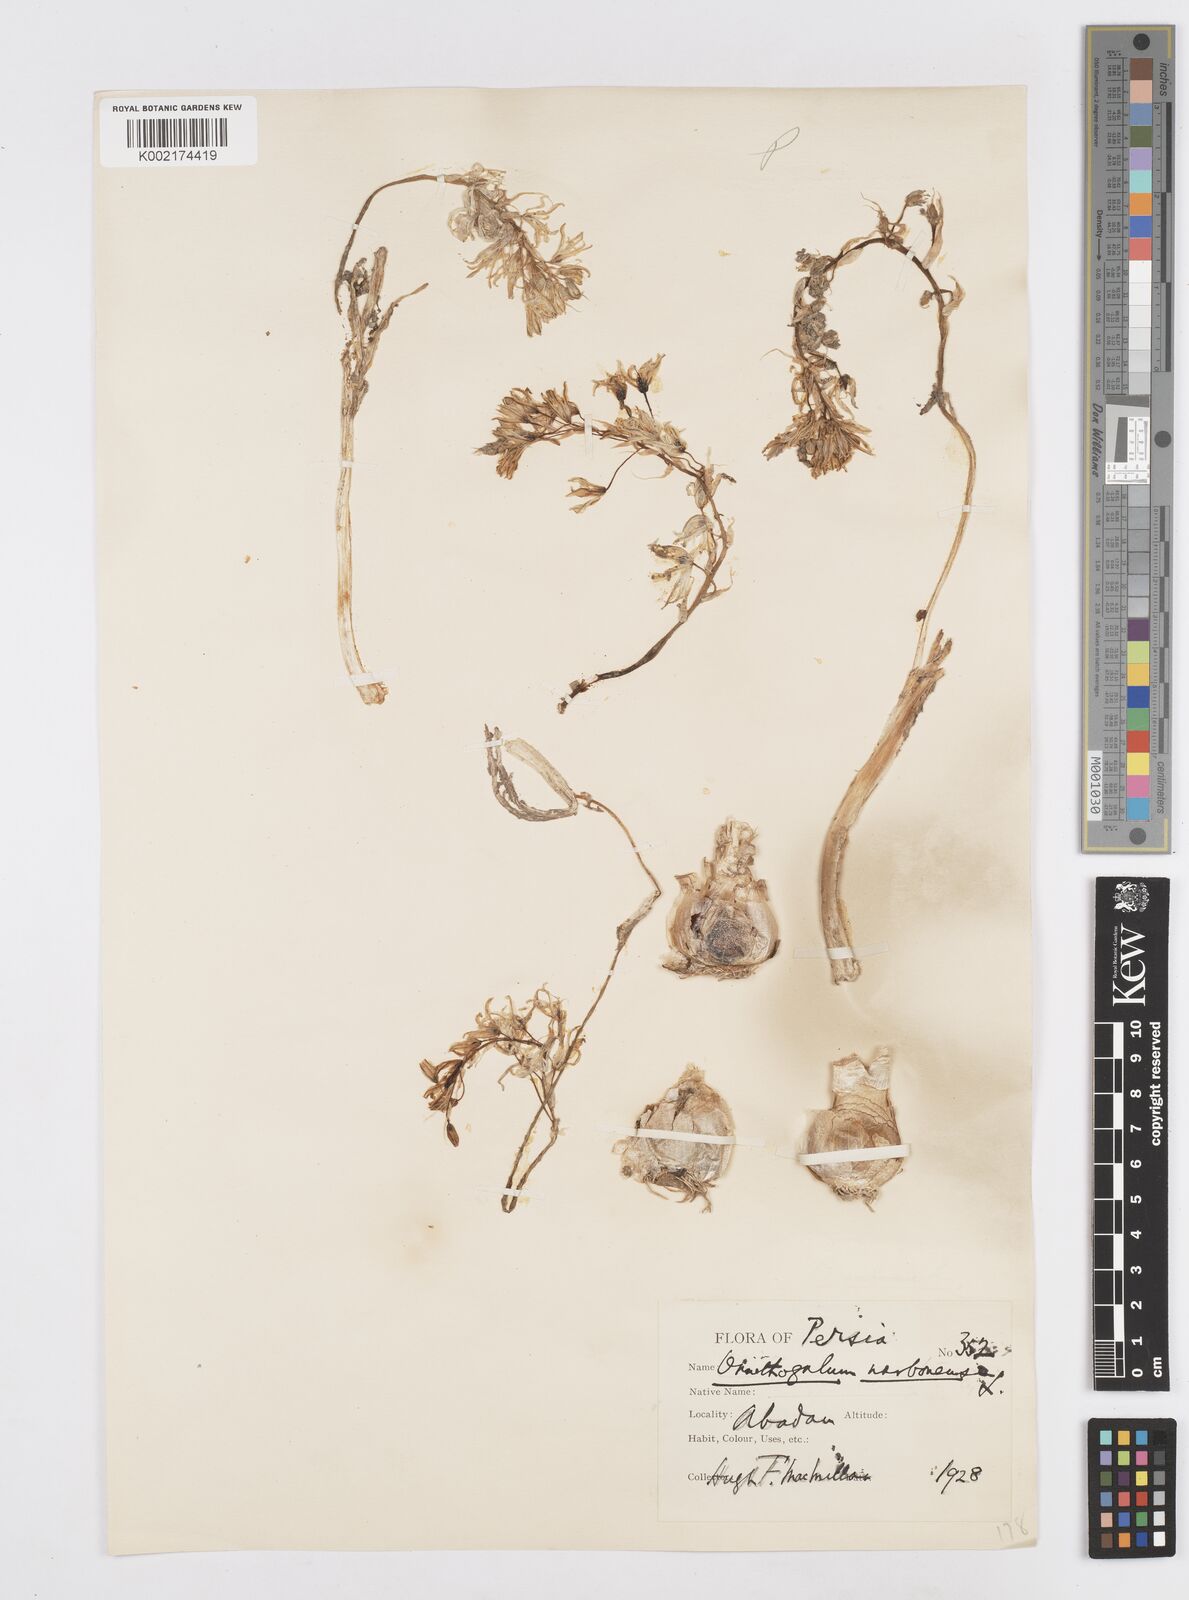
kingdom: Plantae
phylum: Tracheophyta
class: Liliopsida
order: Asparagales
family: Asparagaceae
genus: Ornithogalum
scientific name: Ornithogalum narbonense
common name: Bath-asparagus
